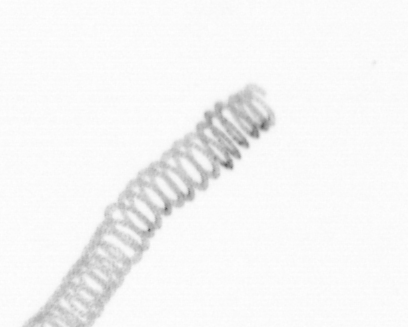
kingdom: Chromista
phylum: Ochrophyta
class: Bacillariophyceae
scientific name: Bacillariophyceae
